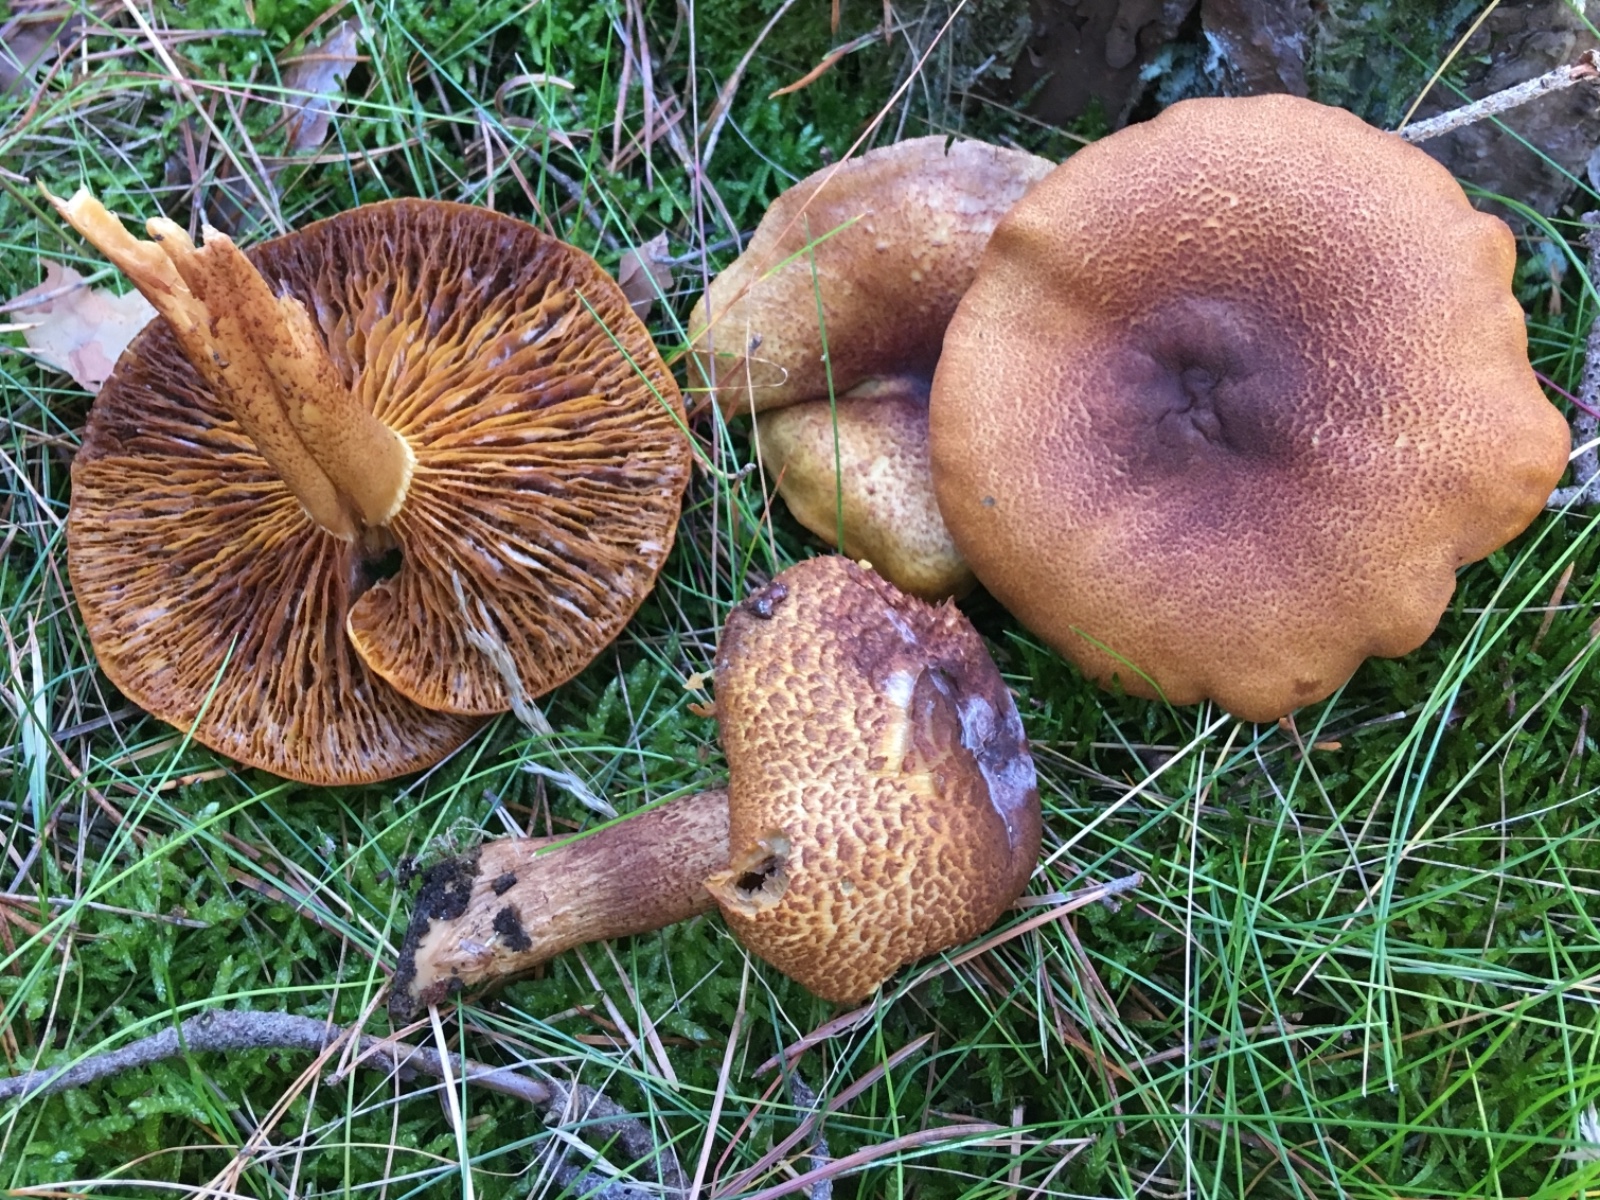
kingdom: Fungi
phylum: Basidiomycota
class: Agaricomycetes
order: Agaricales
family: Tricholomataceae
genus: Tricholomopsis
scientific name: Tricholomopsis rutilans
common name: purpur-væbnerhat
